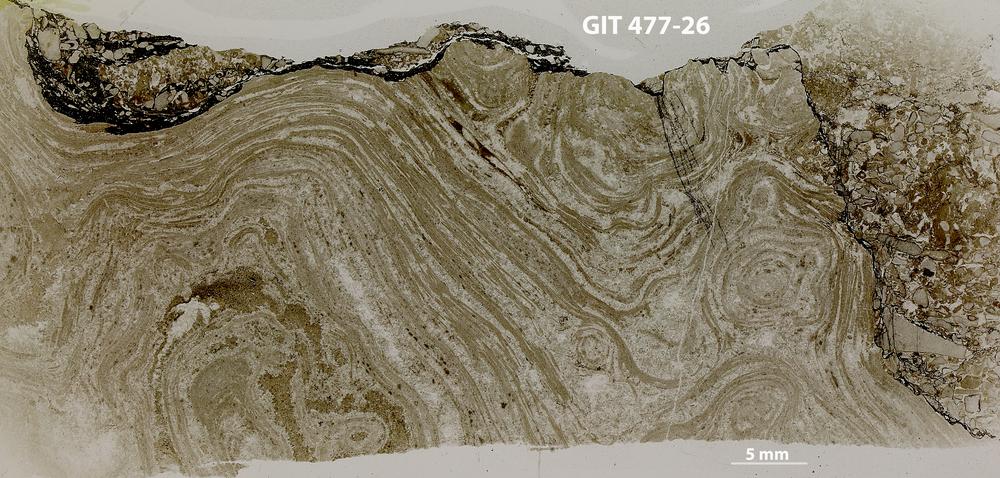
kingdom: Animalia
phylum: Porifera
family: Labechiidae
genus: Labechia
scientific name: Labechia
